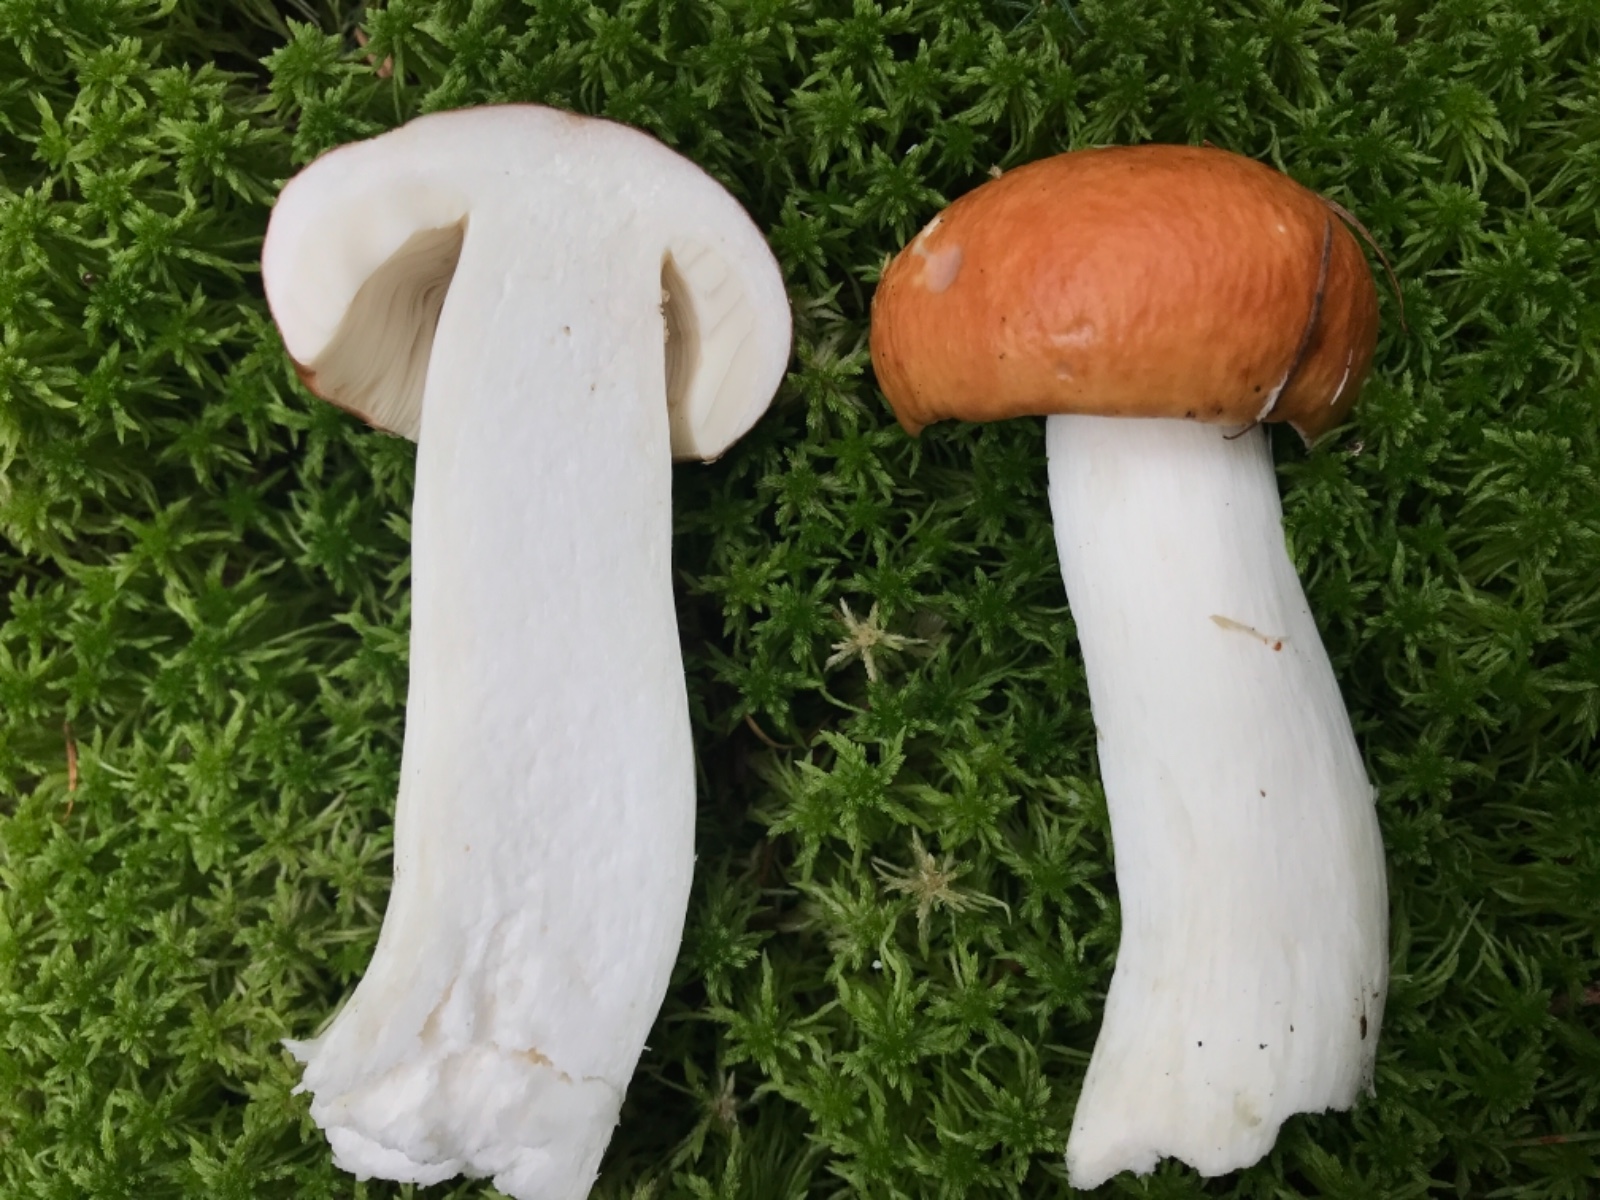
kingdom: Fungi
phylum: Basidiomycota
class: Agaricomycetes
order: Russulales
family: Russulaceae
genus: Russula
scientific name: Russula paludosa
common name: prægtig skørhat
